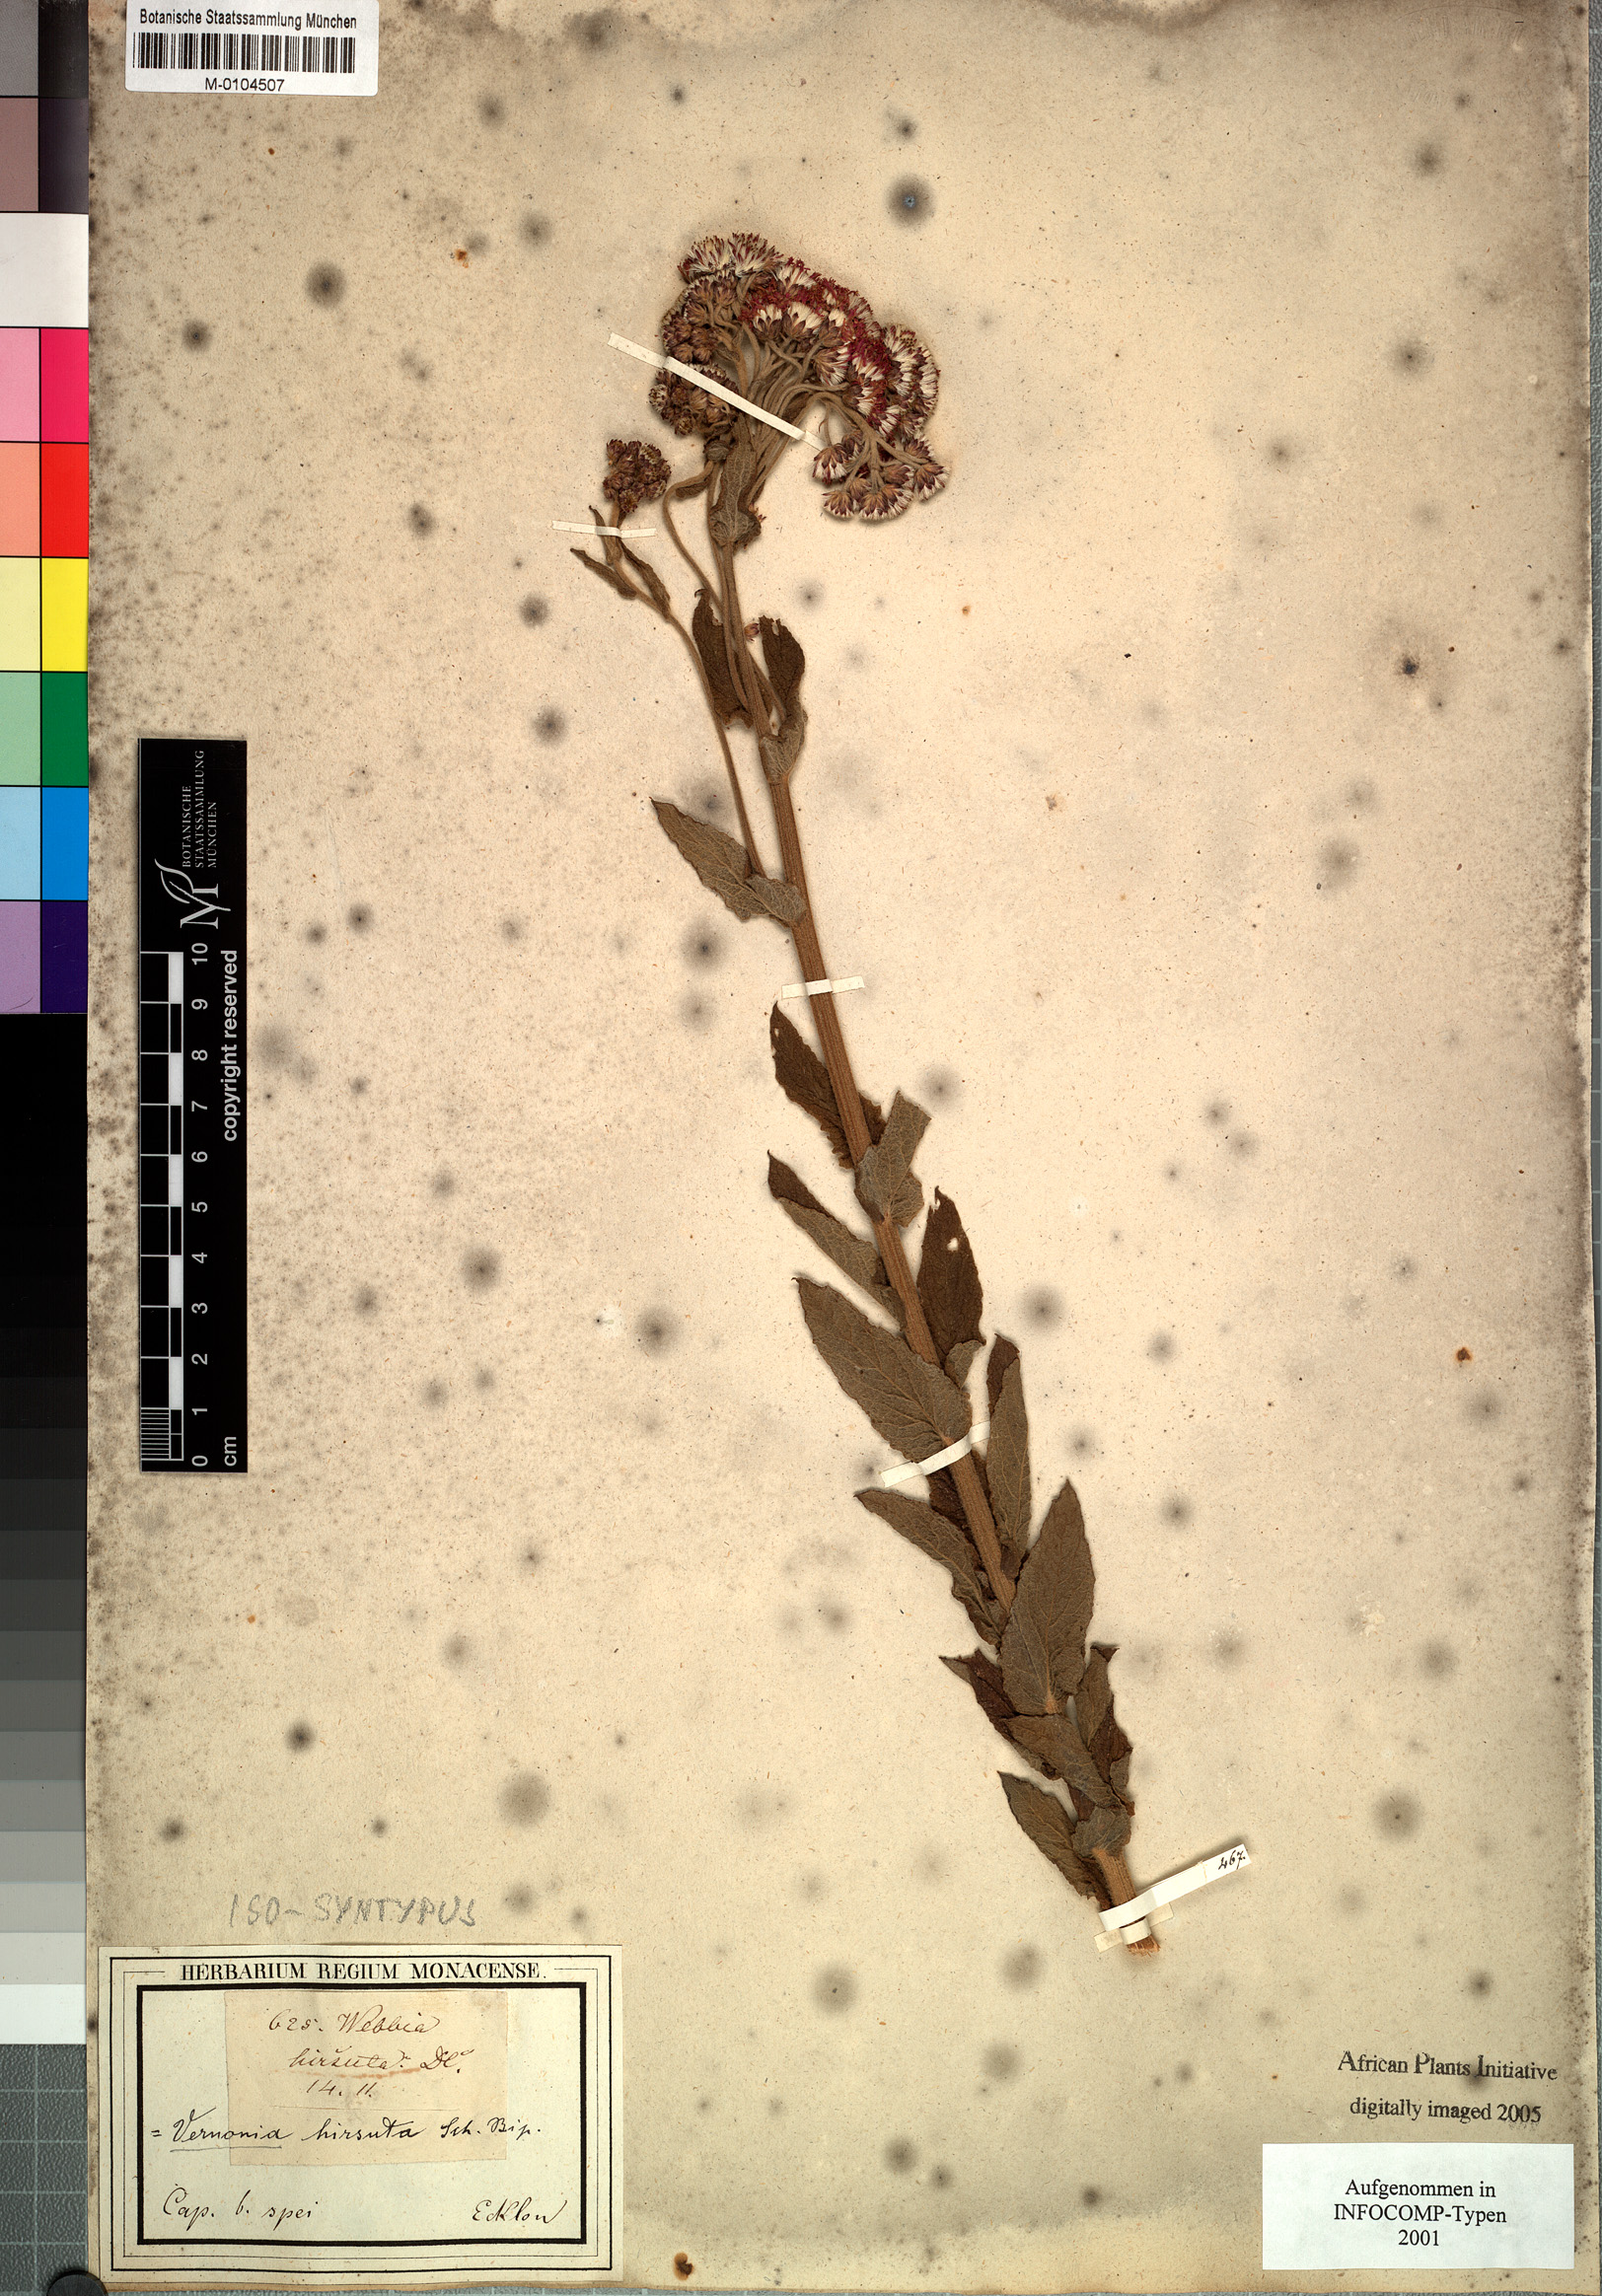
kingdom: Plantae
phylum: Tracheophyta
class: Magnoliopsida
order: Asterales
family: Asteraceae
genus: Hilliardiella
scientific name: Hilliardiella hirsuta
